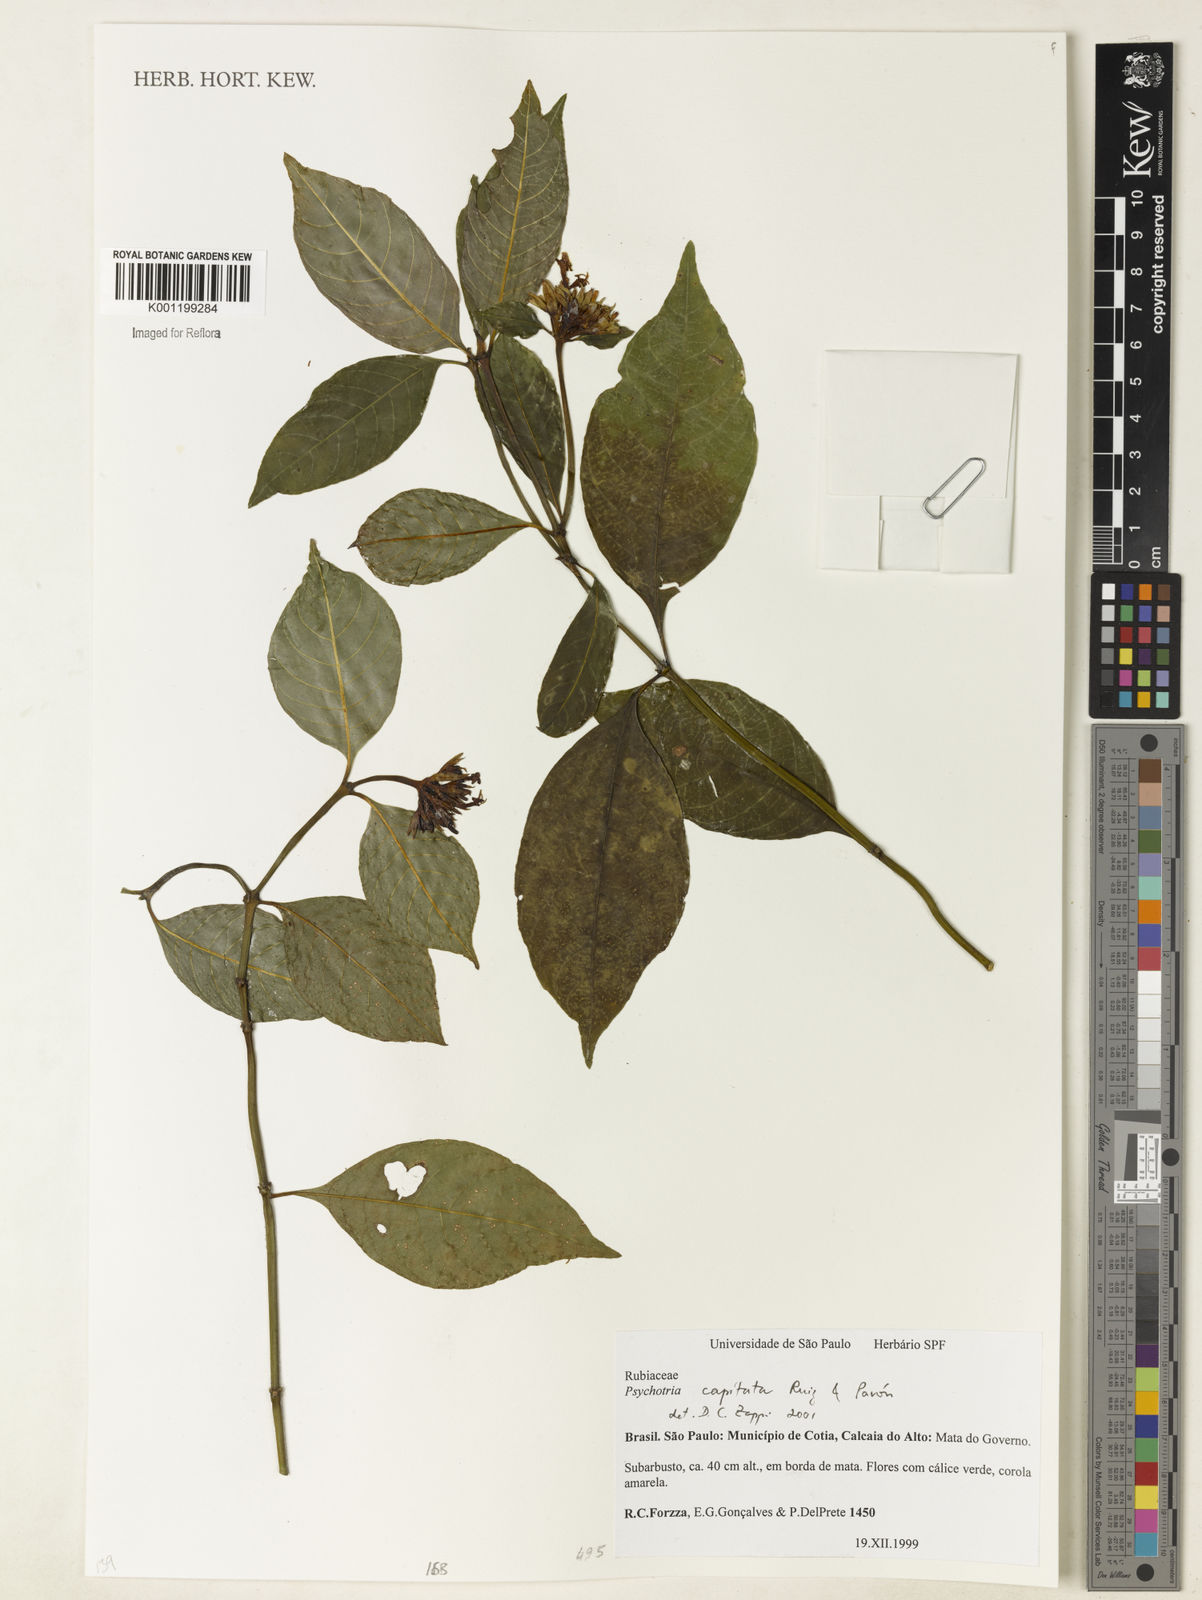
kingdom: Plantae
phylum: Tracheophyta
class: Magnoliopsida
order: Gentianales
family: Rubiaceae
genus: Palicourea
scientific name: Palicourea violacea
